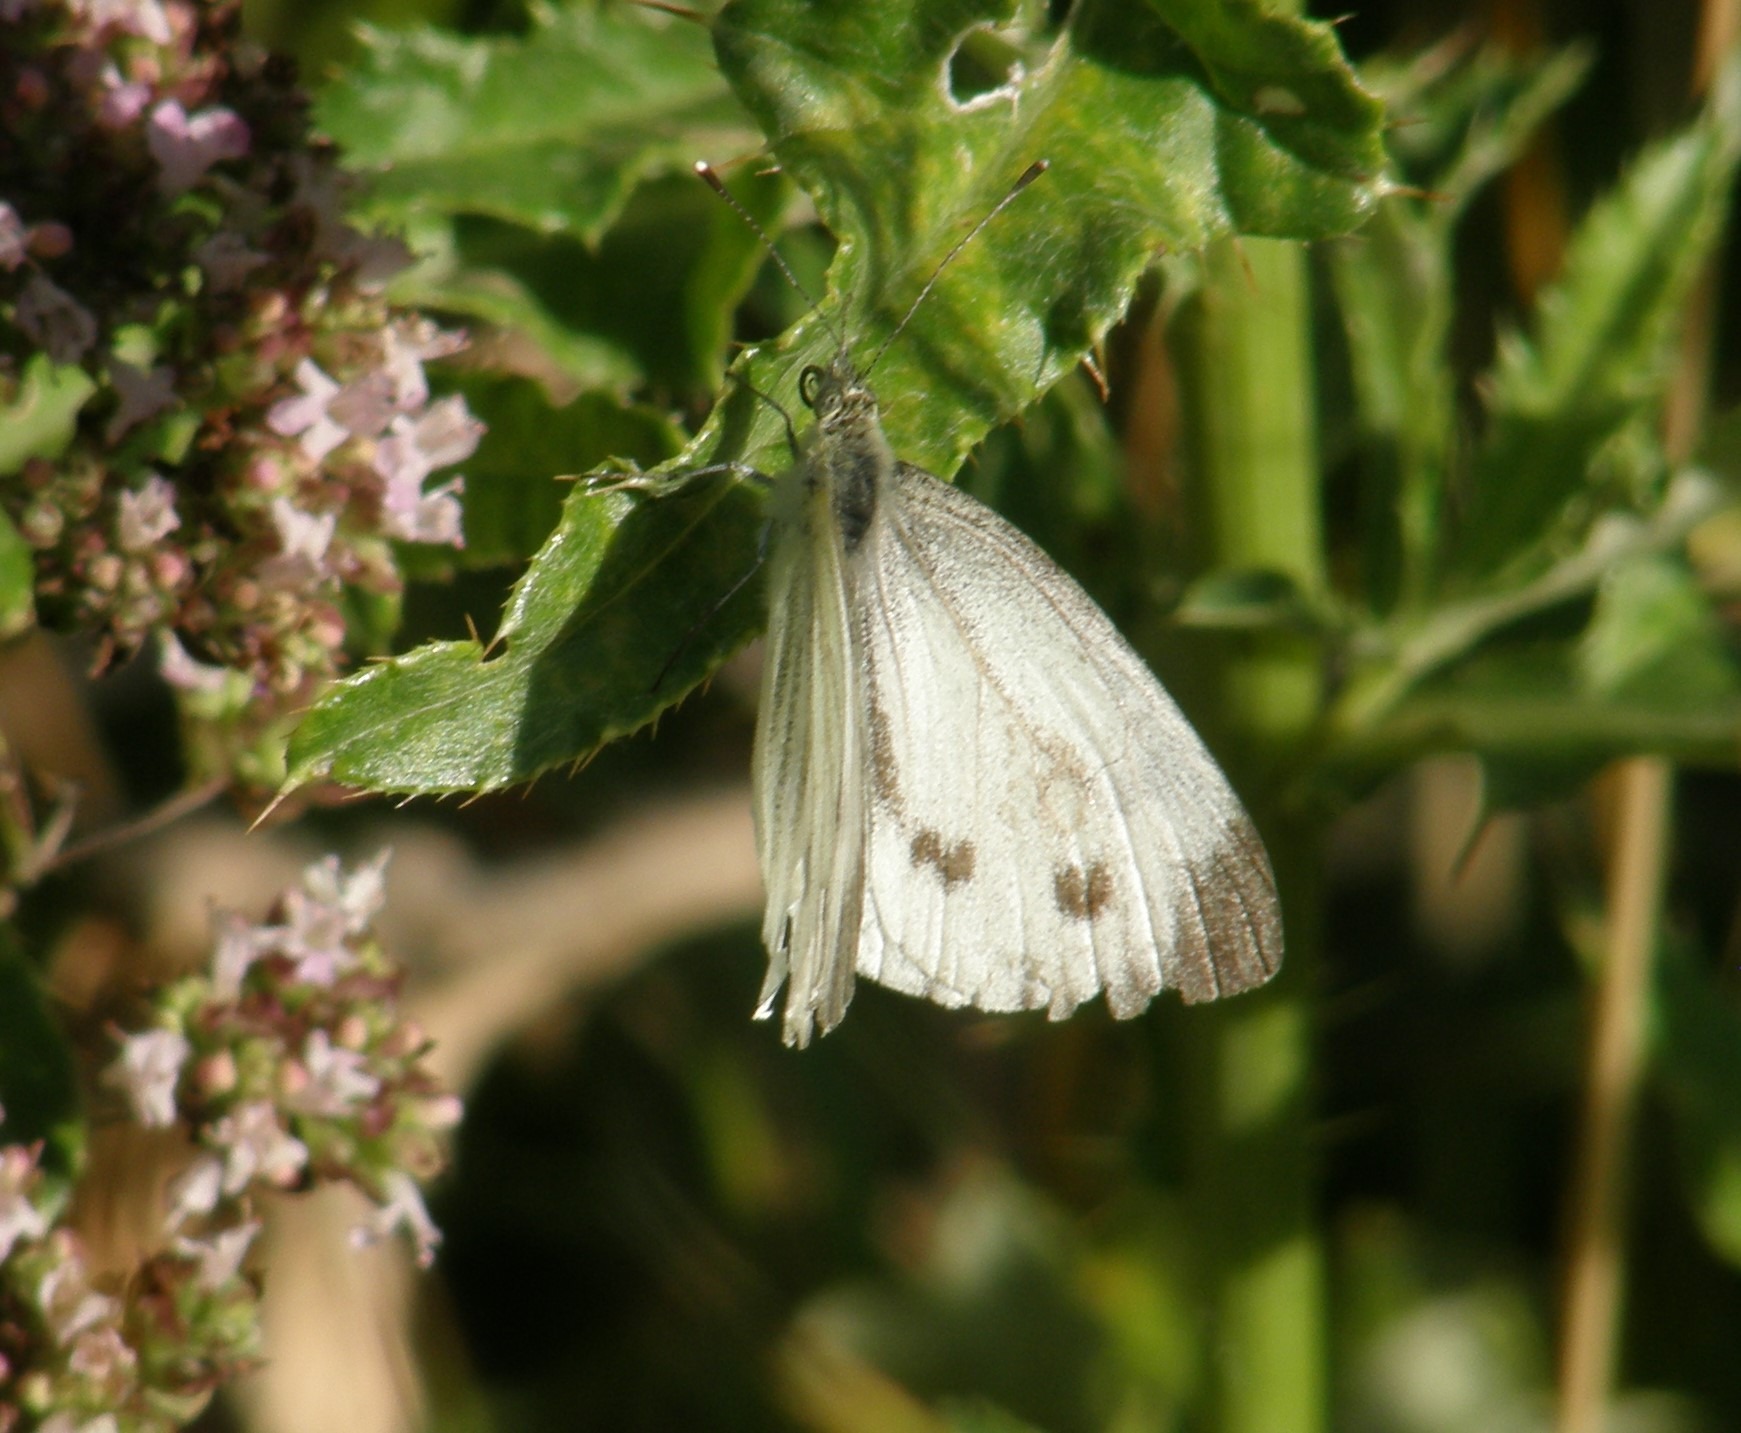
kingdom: Animalia
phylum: Arthropoda
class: Insecta
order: Lepidoptera
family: Pieridae
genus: Pieris
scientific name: Pieris napi
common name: Grønåret kålsommerfugl
